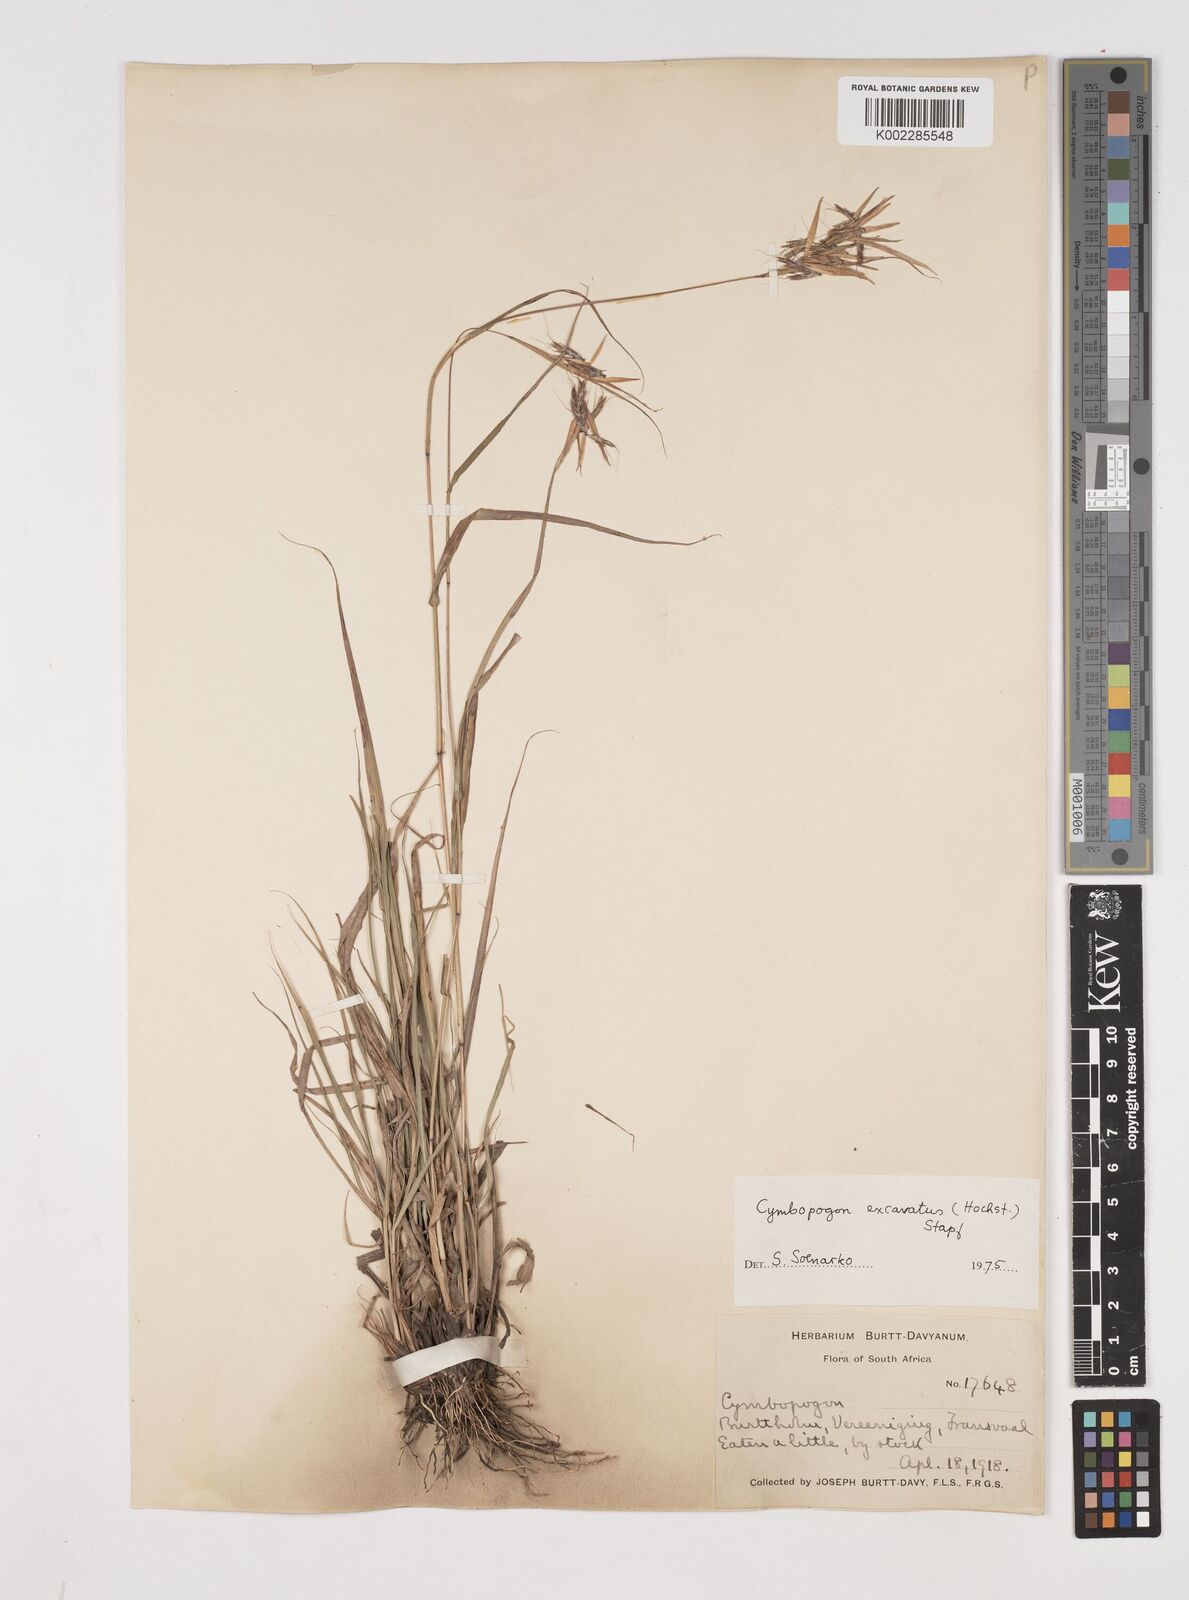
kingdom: Plantae
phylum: Tracheophyta
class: Liliopsida
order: Poales
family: Poaceae
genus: Cymbopogon
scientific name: Cymbopogon caesius
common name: Kachi grass
